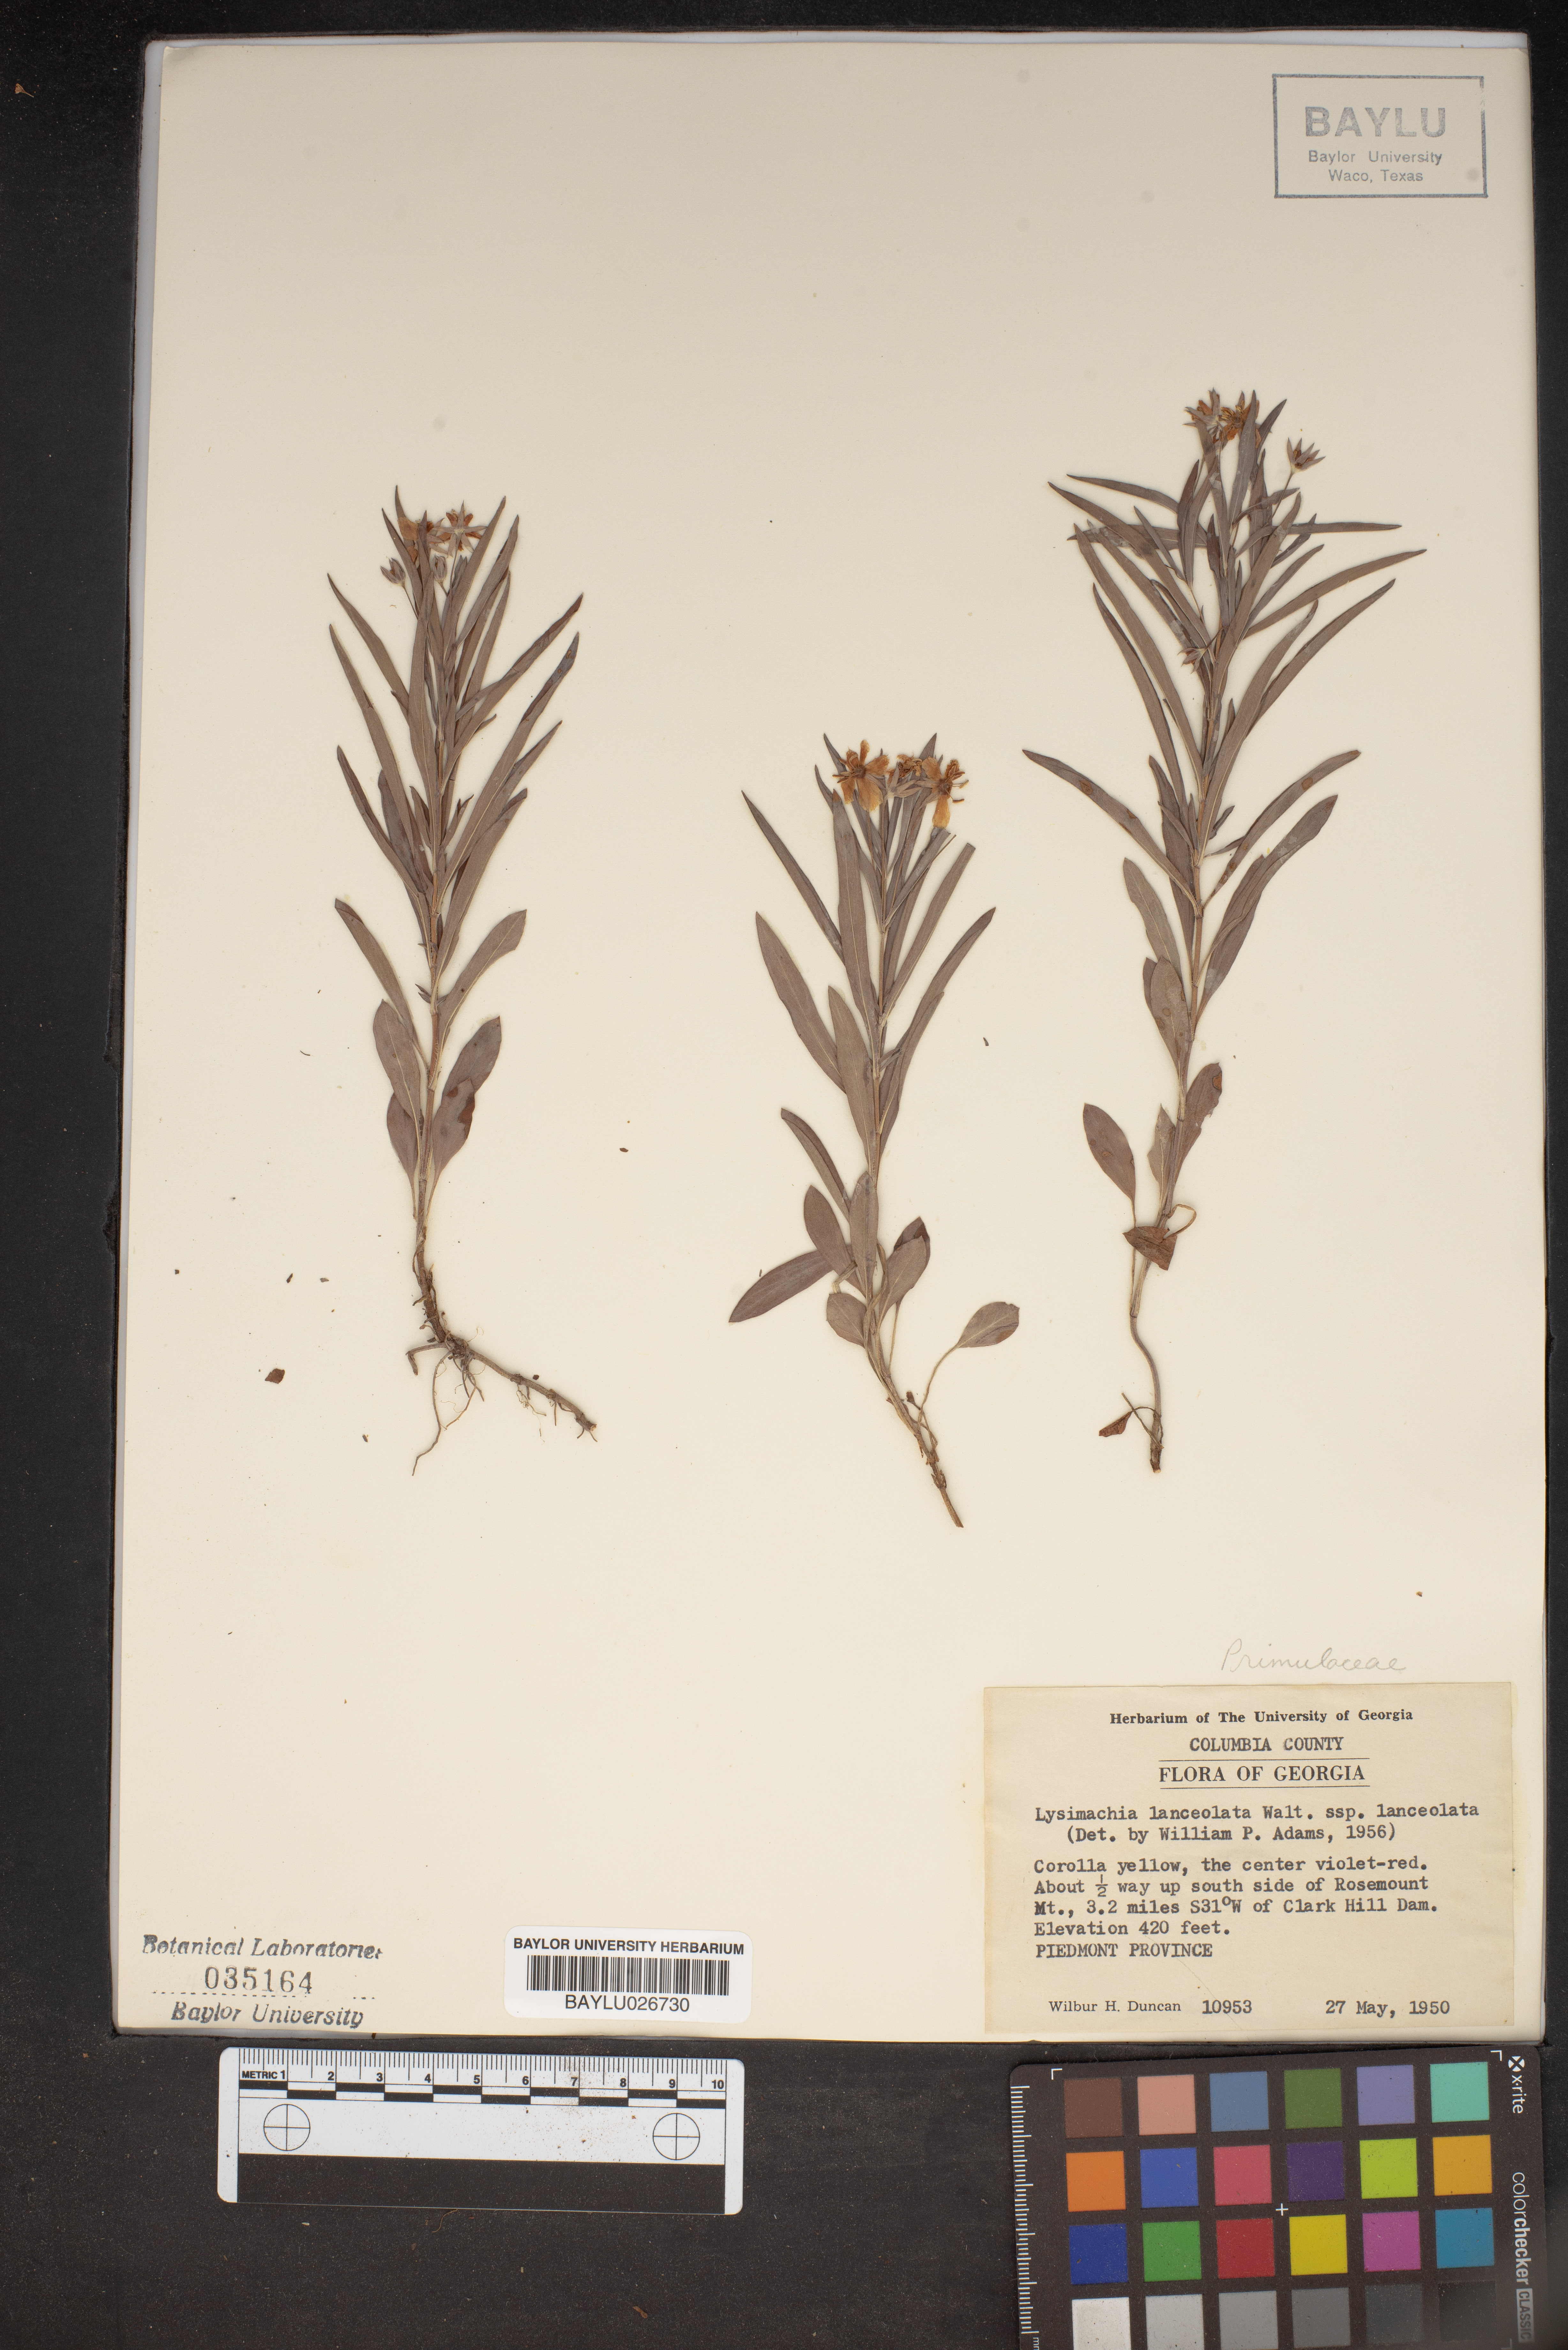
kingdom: Plantae
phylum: Tracheophyta
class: Magnoliopsida
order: Ericales
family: Primulaceae
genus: Lysimachia
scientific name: Lysimachia lanceolata
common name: Lance-leaved loosestrife
